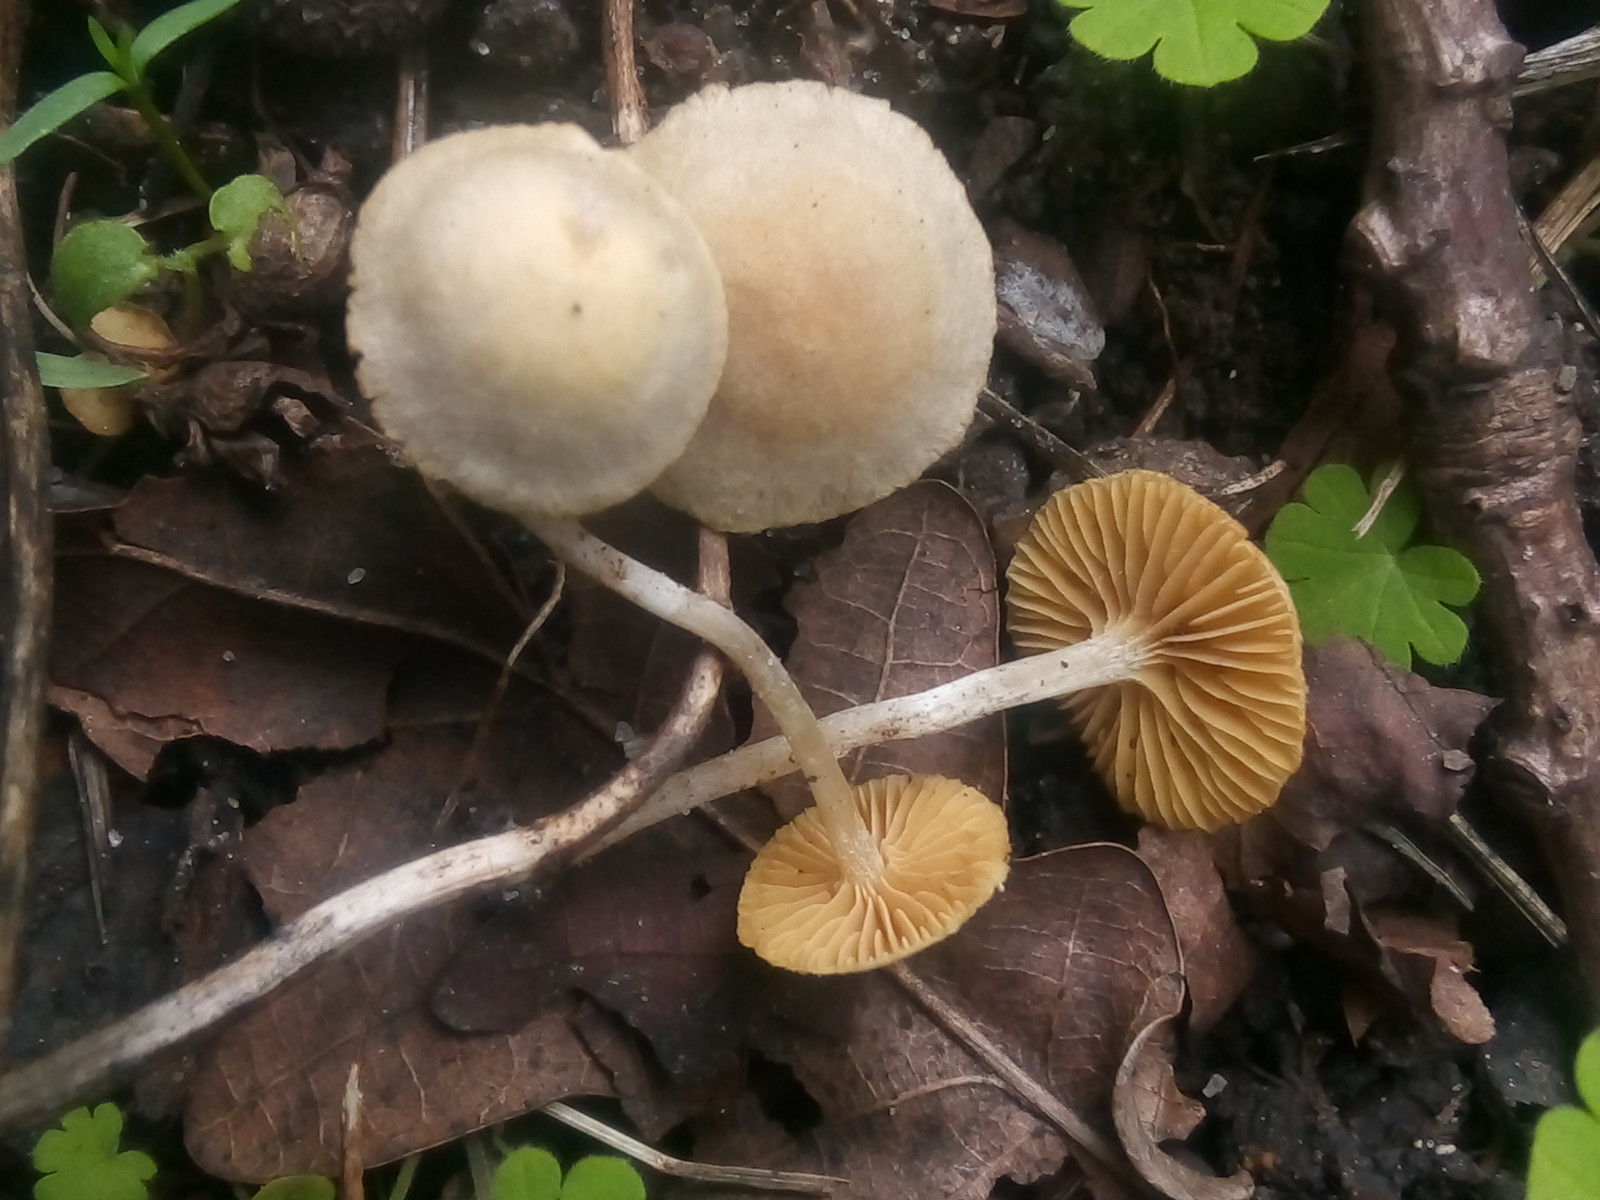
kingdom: Fungi
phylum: Basidiomycota
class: Agaricomycetes
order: Agaricales
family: Tubariaceae
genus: Tubaria
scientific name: Tubaria dispersa
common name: tjørne-fnughat
